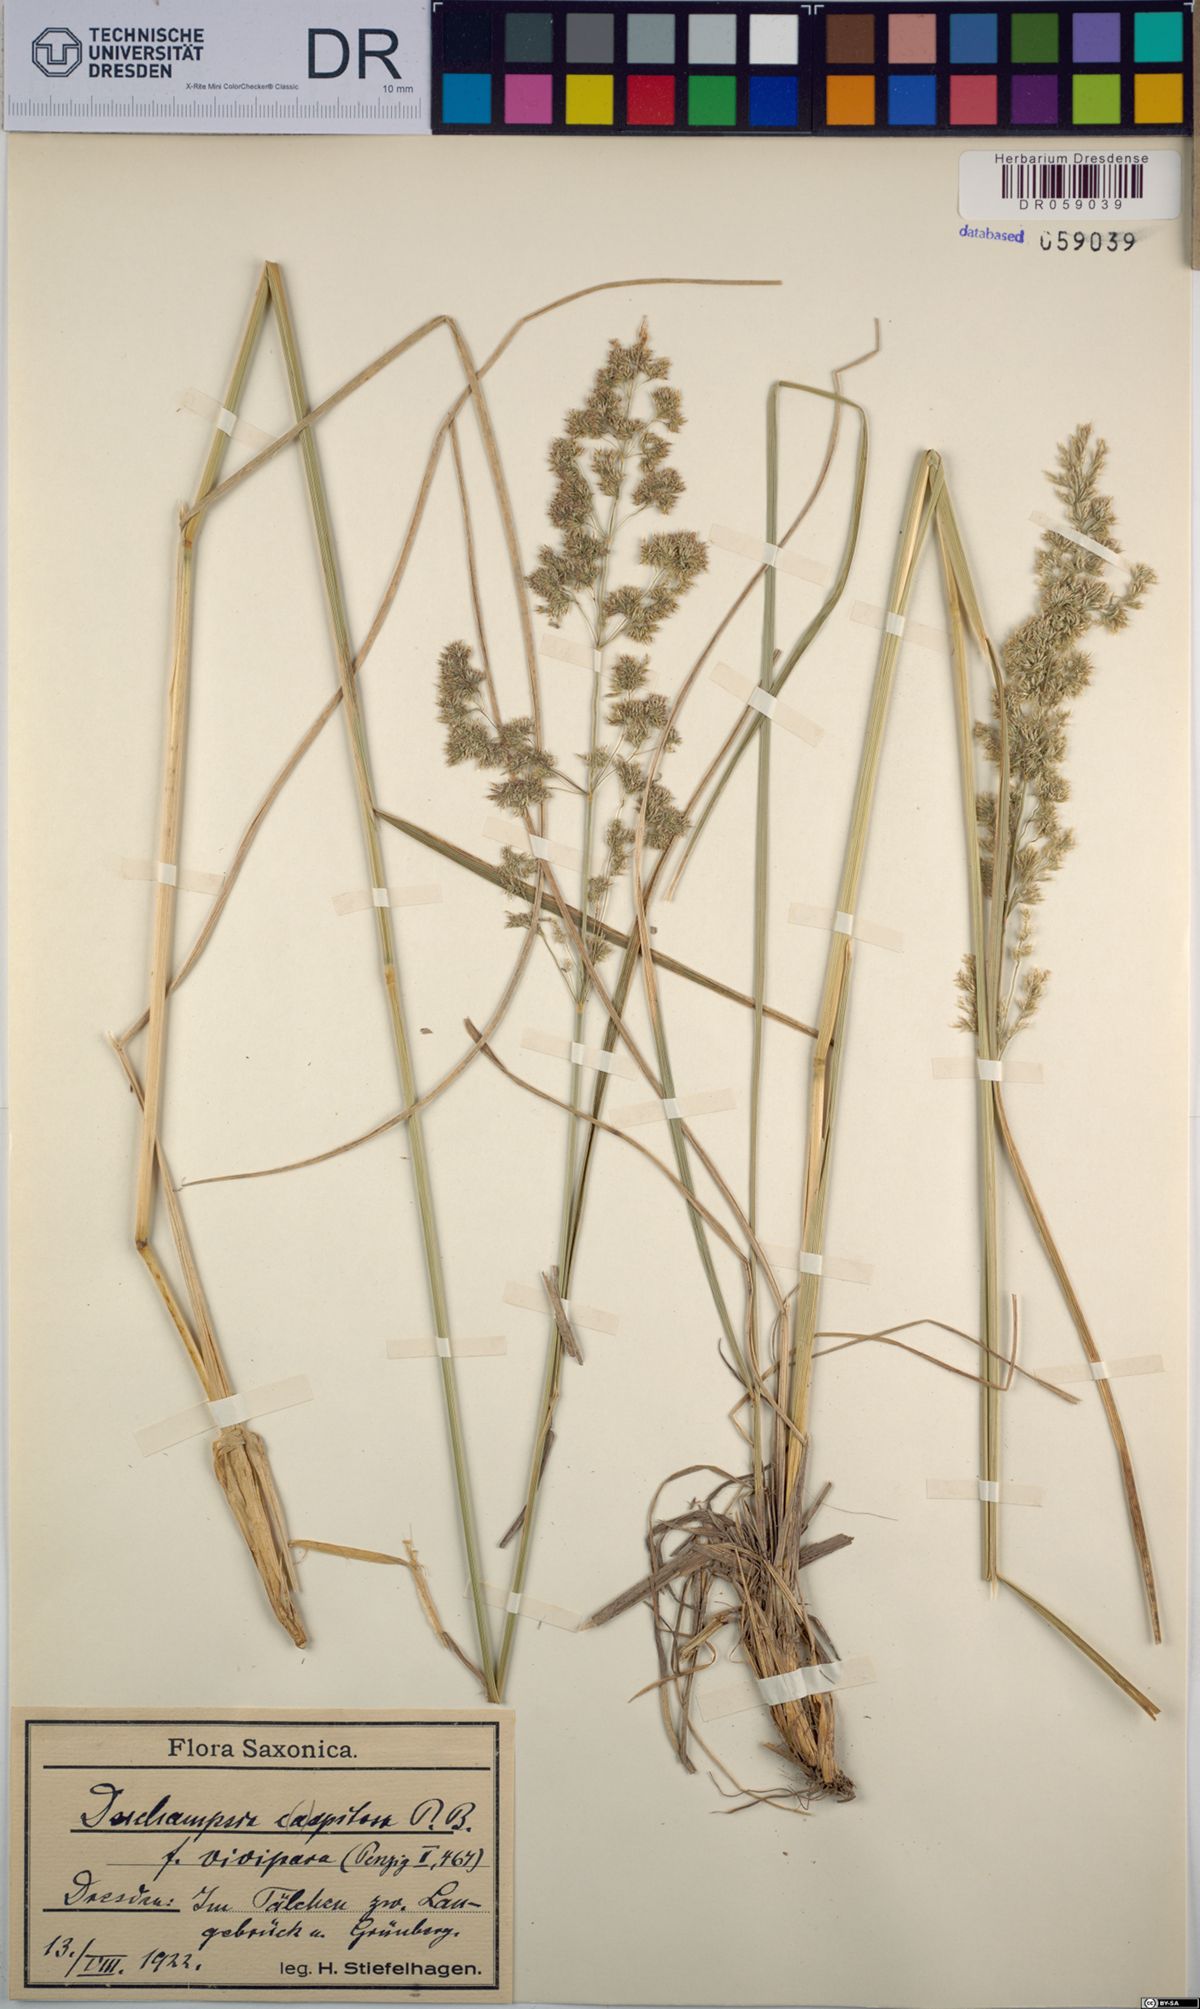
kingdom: Plantae
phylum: Tracheophyta
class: Liliopsida
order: Poales
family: Poaceae
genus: Deschampsia
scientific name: Deschampsia cespitosa
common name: Tufted hair-grass
